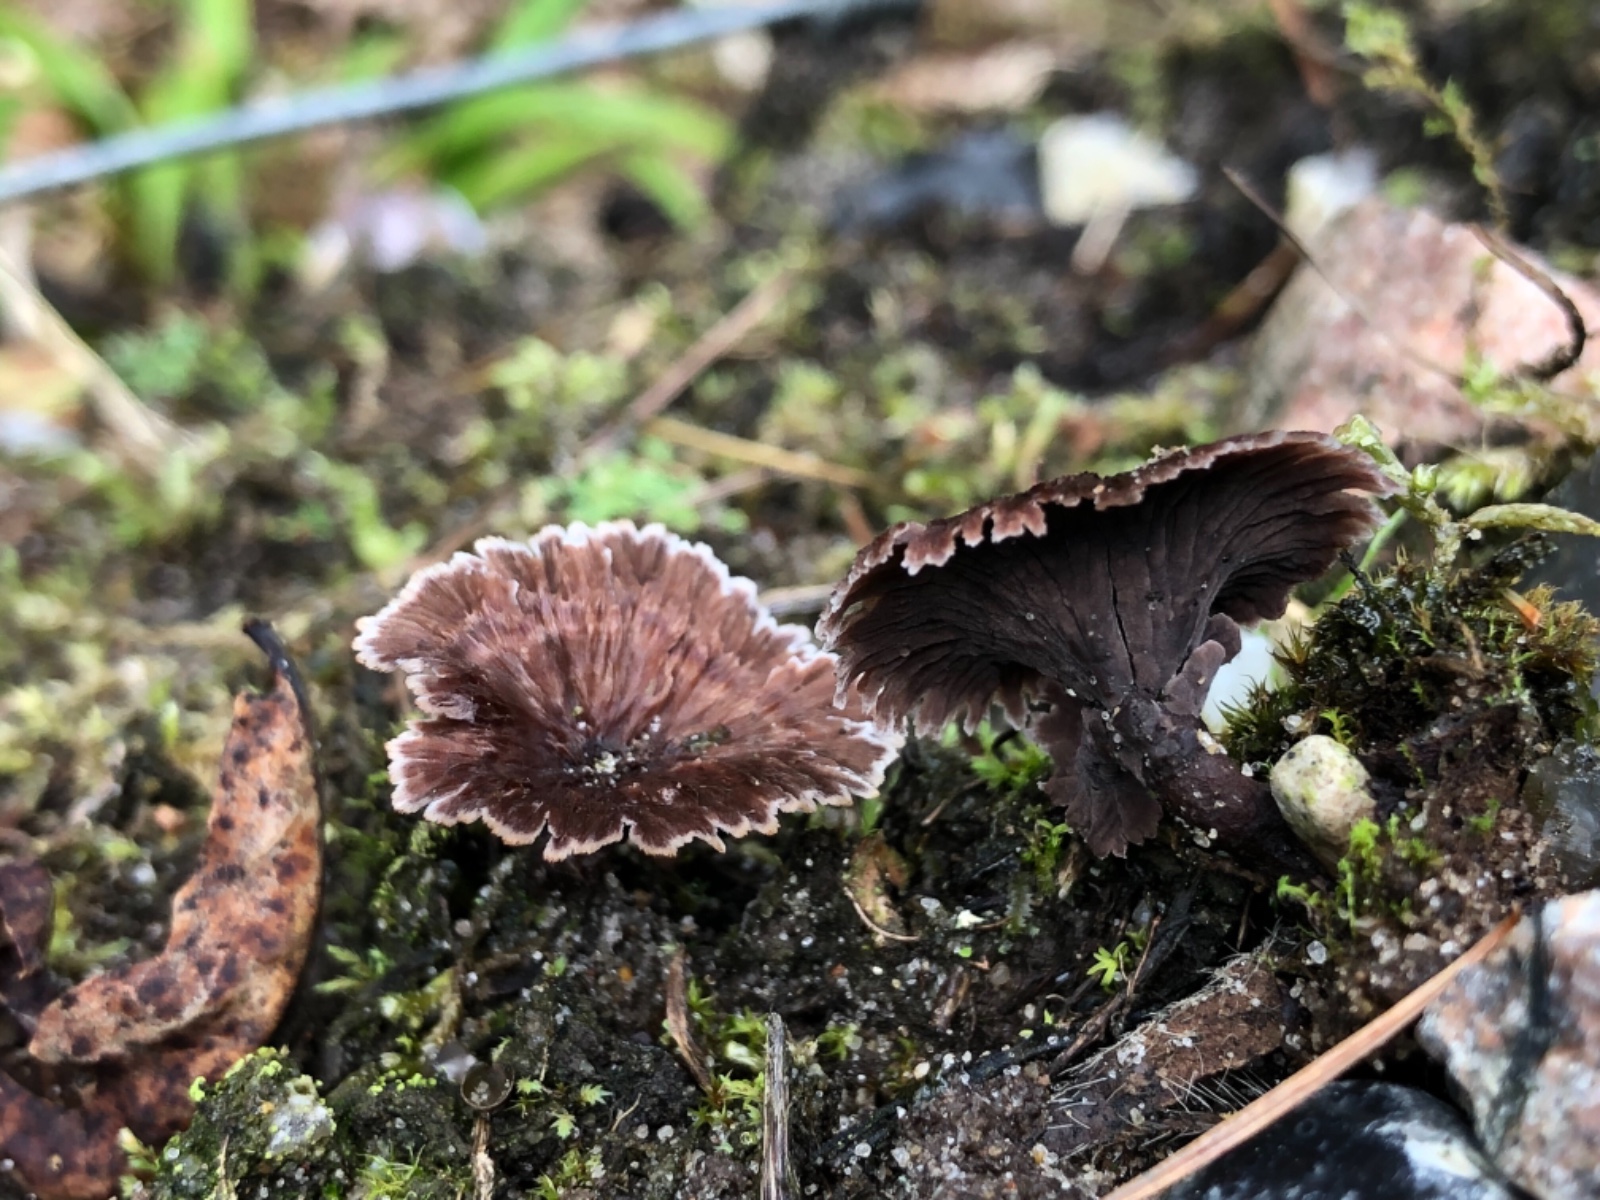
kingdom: Fungi
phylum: Basidiomycota
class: Agaricomycetes
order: Thelephorales
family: Thelephoraceae
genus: Thelephora
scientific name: Thelephora caryophyllea
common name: tragt-frynsesvamp
